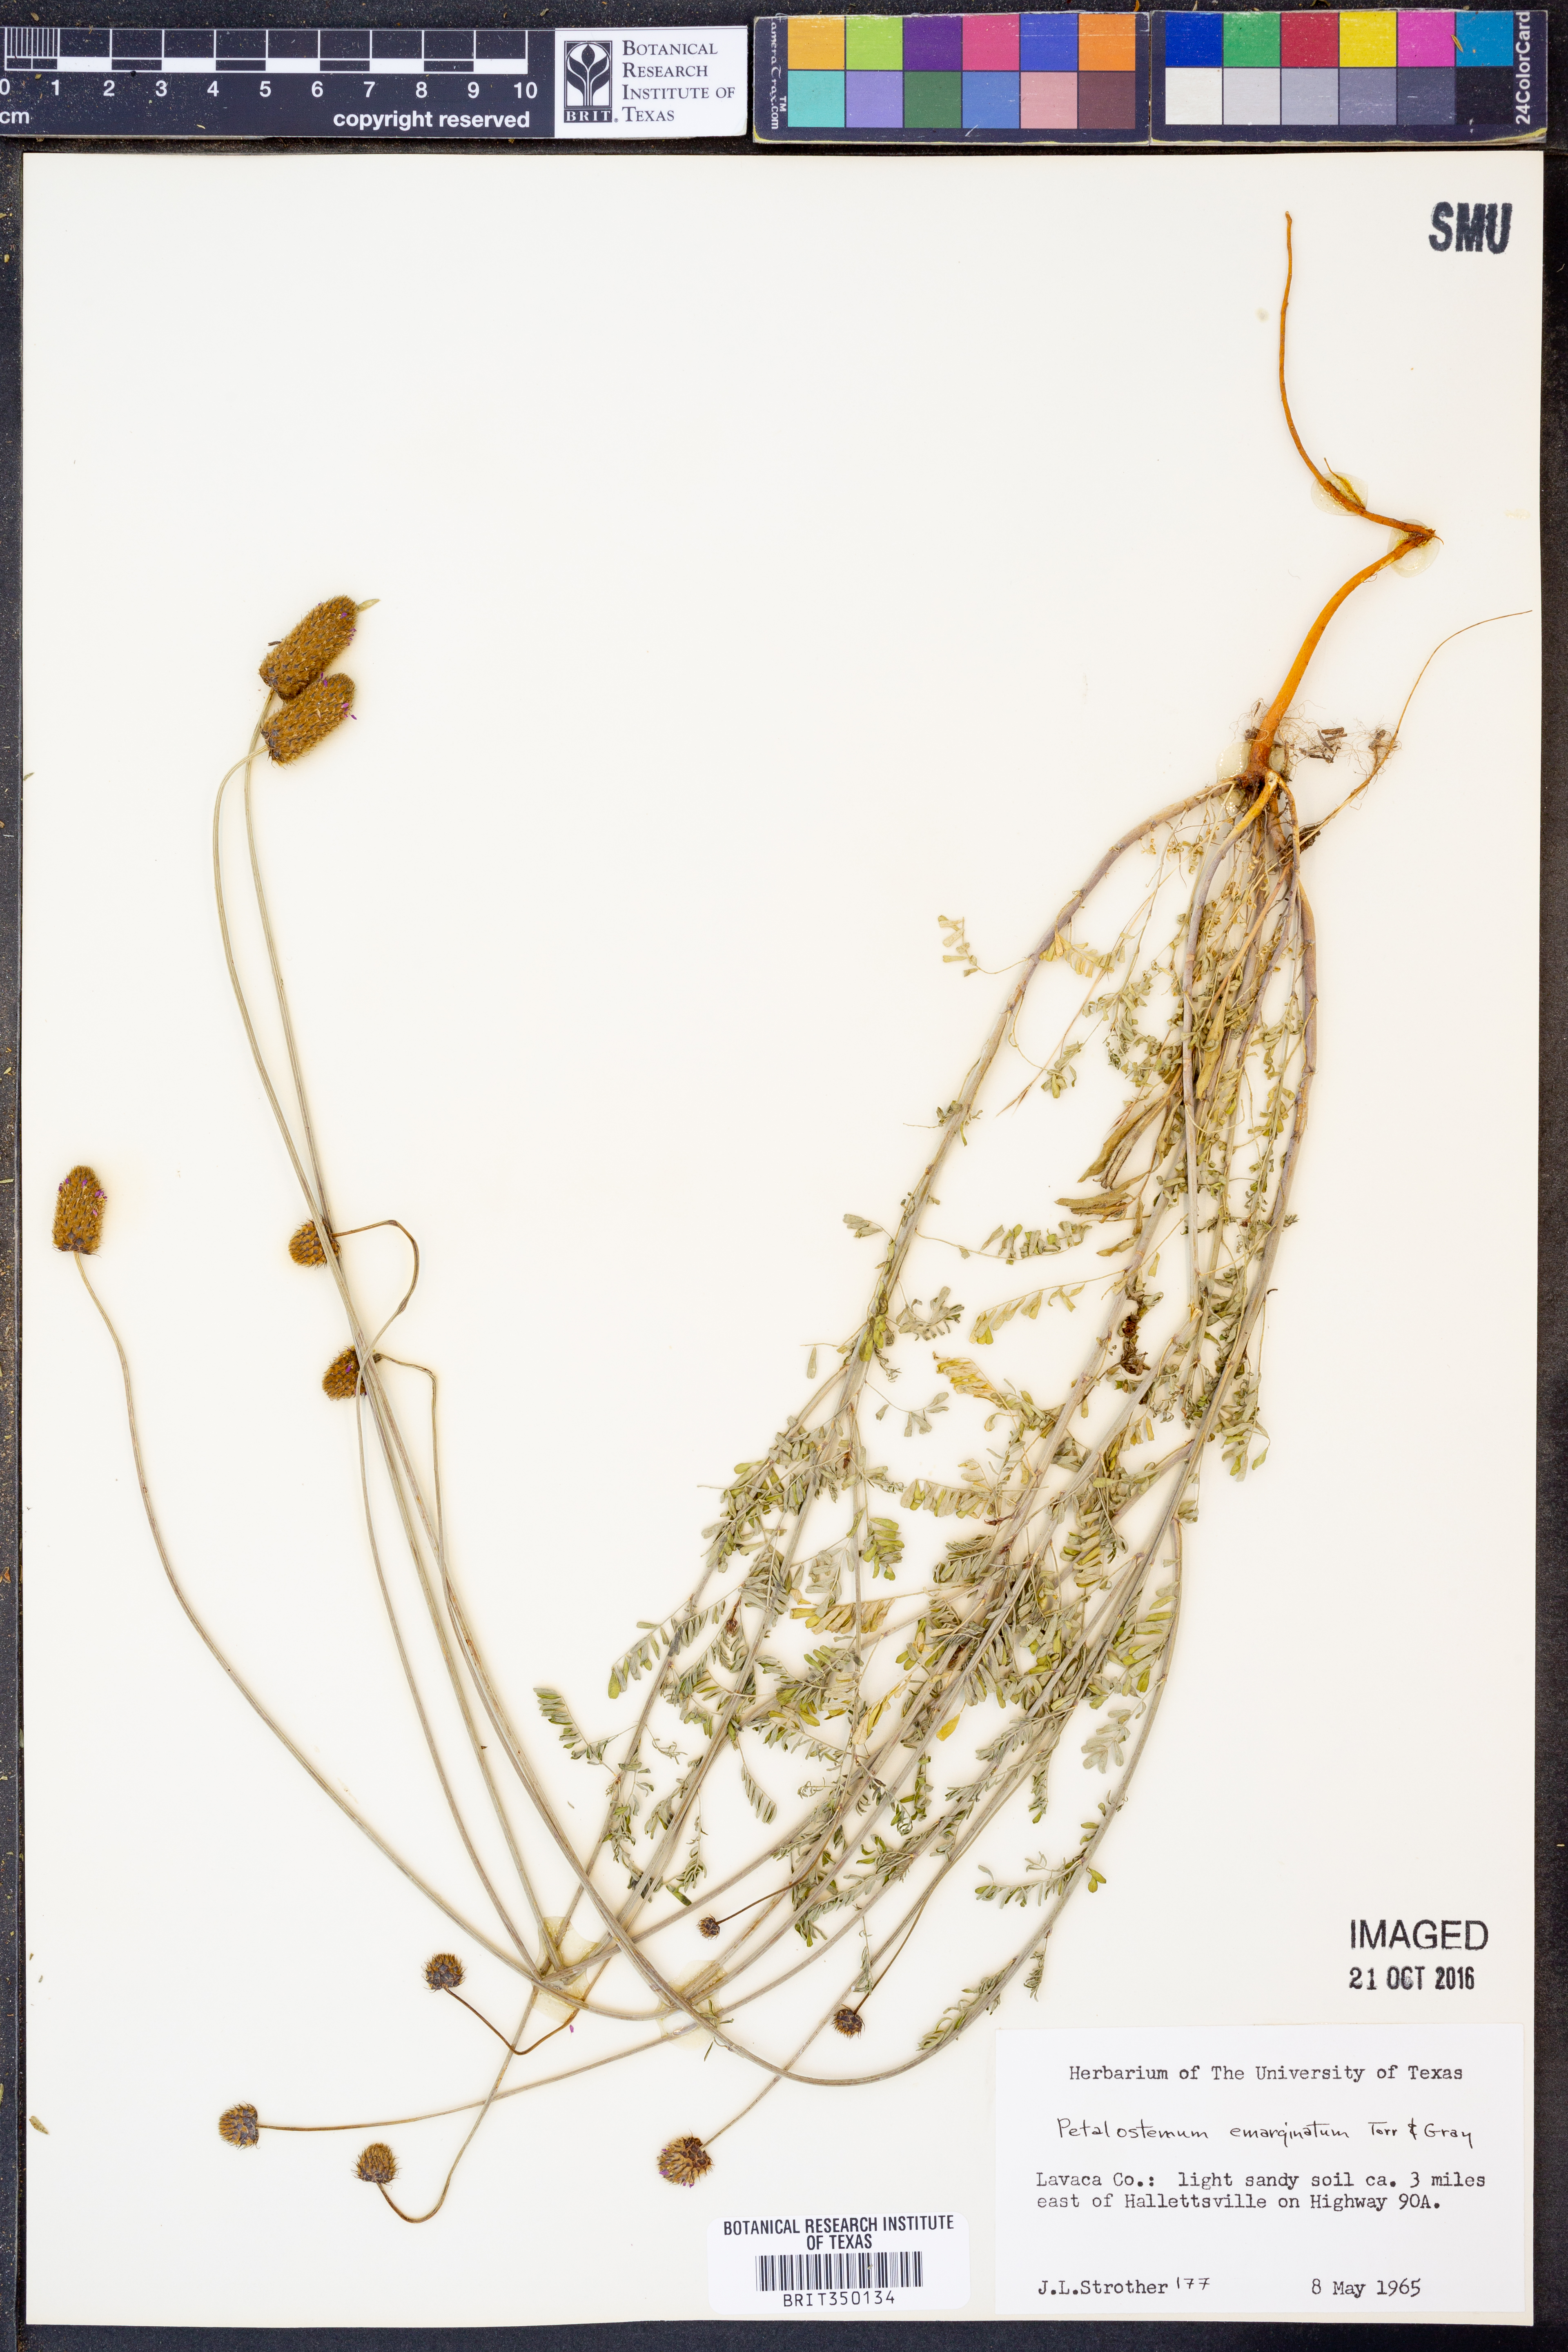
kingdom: Plantae
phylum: Tracheophyta
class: Magnoliopsida
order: Fabales
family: Fabaceae
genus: Dalea
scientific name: Dalea emarginata
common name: Wedgeleaf prairie clover
